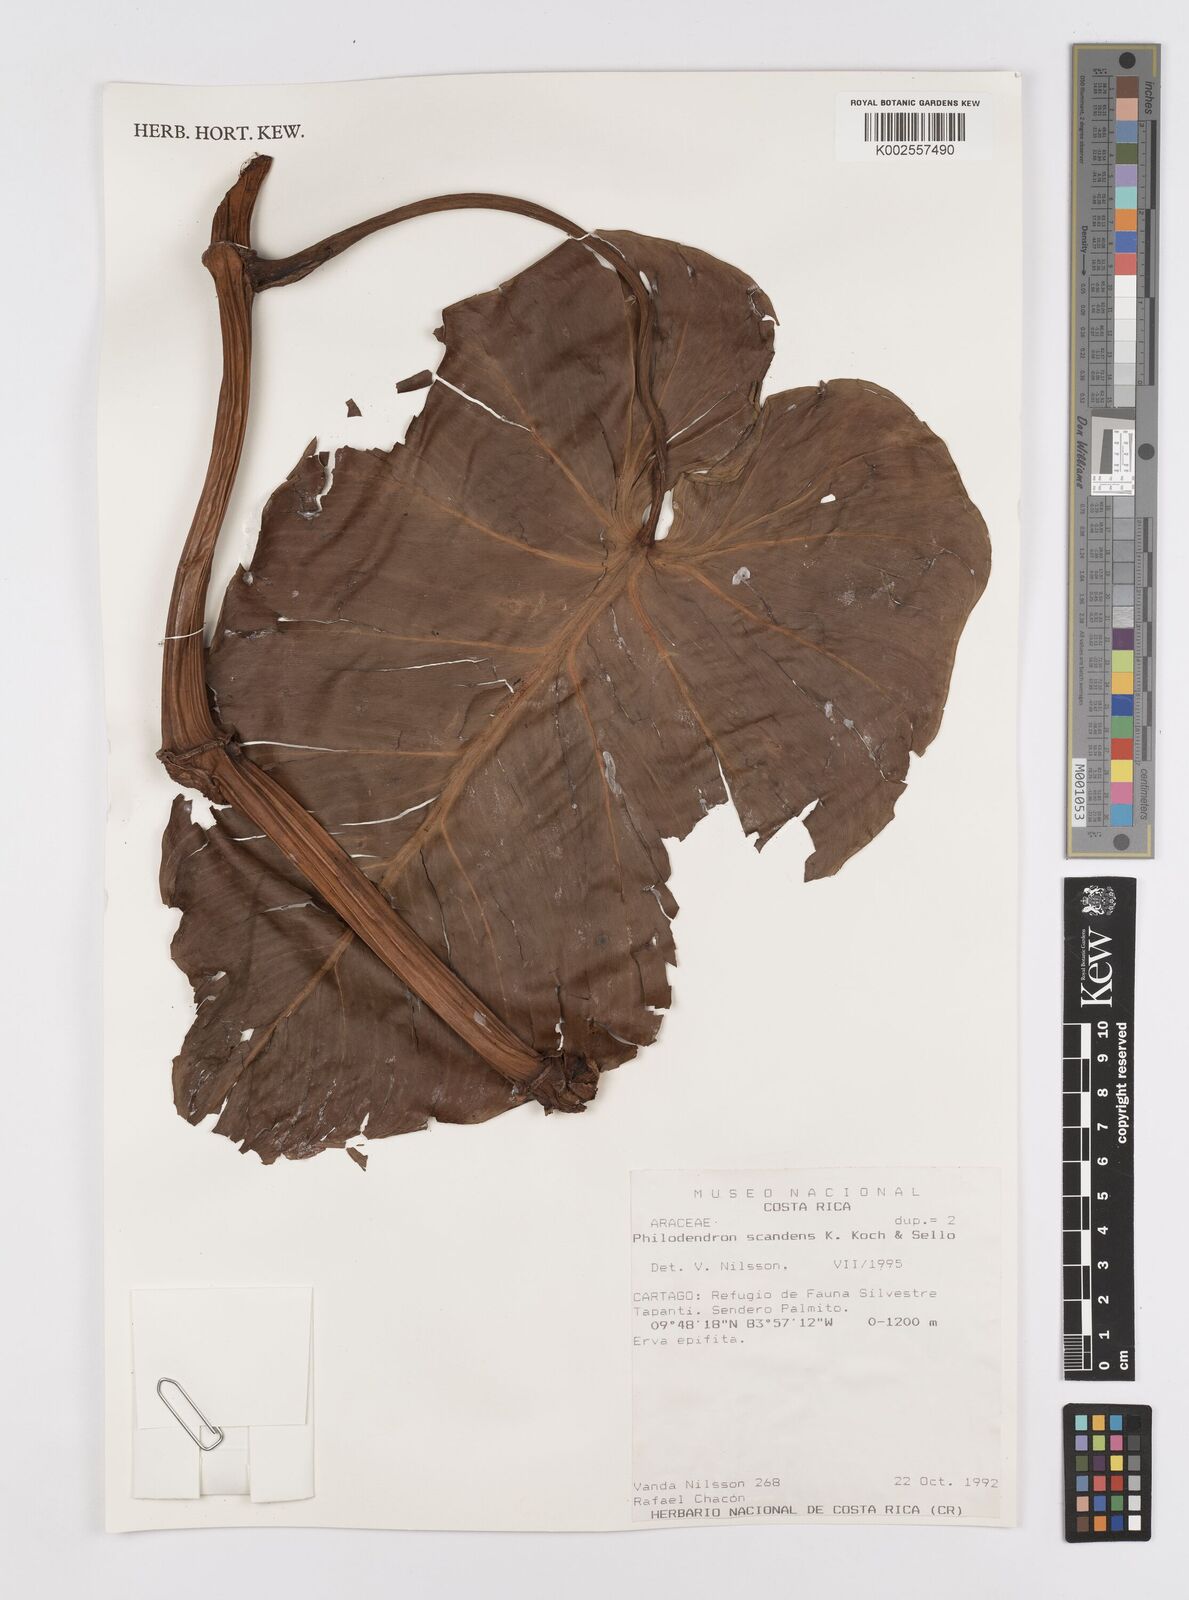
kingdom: Plantae
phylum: Tracheophyta
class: Liliopsida
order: Alismatales
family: Araceae
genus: Philodendron
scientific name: Philodendron hederaceum
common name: Vilevine
